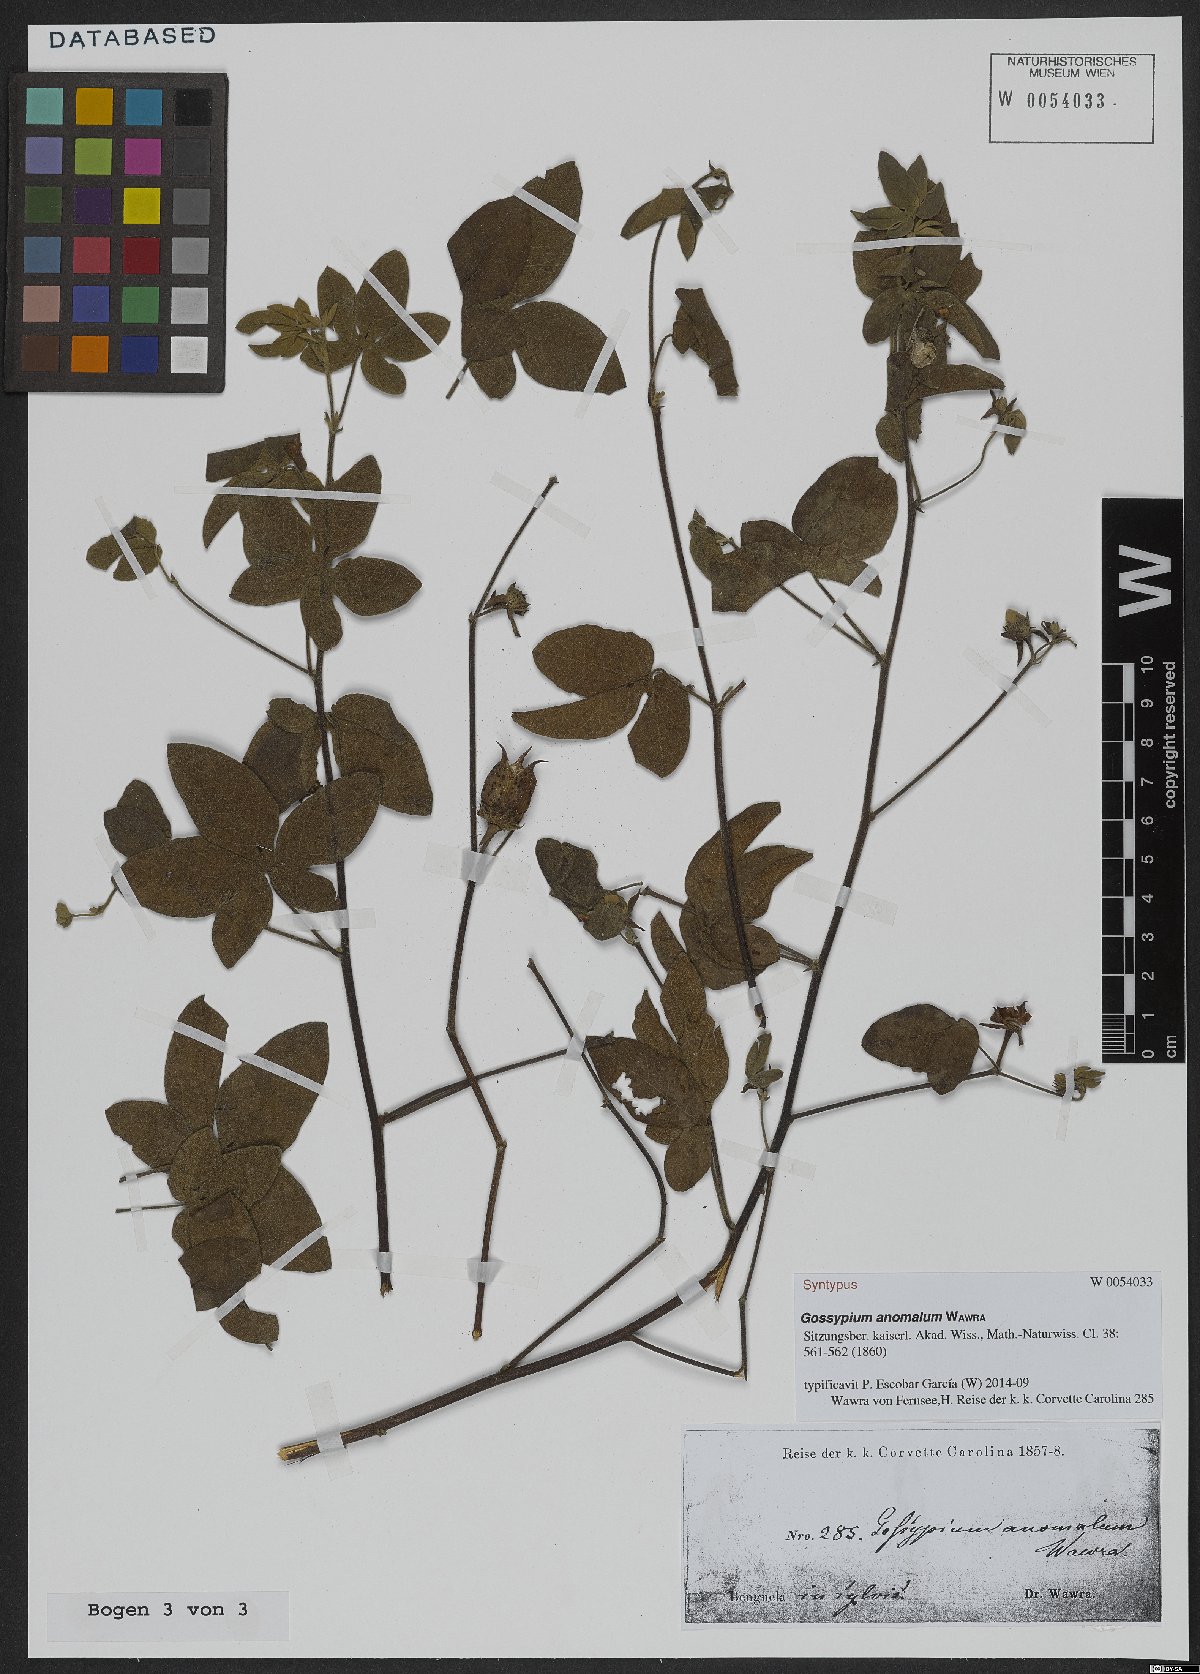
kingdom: Plantae
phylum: Tracheophyta
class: Magnoliopsida
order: Malvales
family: Malvaceae
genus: Gossypium
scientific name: Gossypium anomalum
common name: African wild cotton
